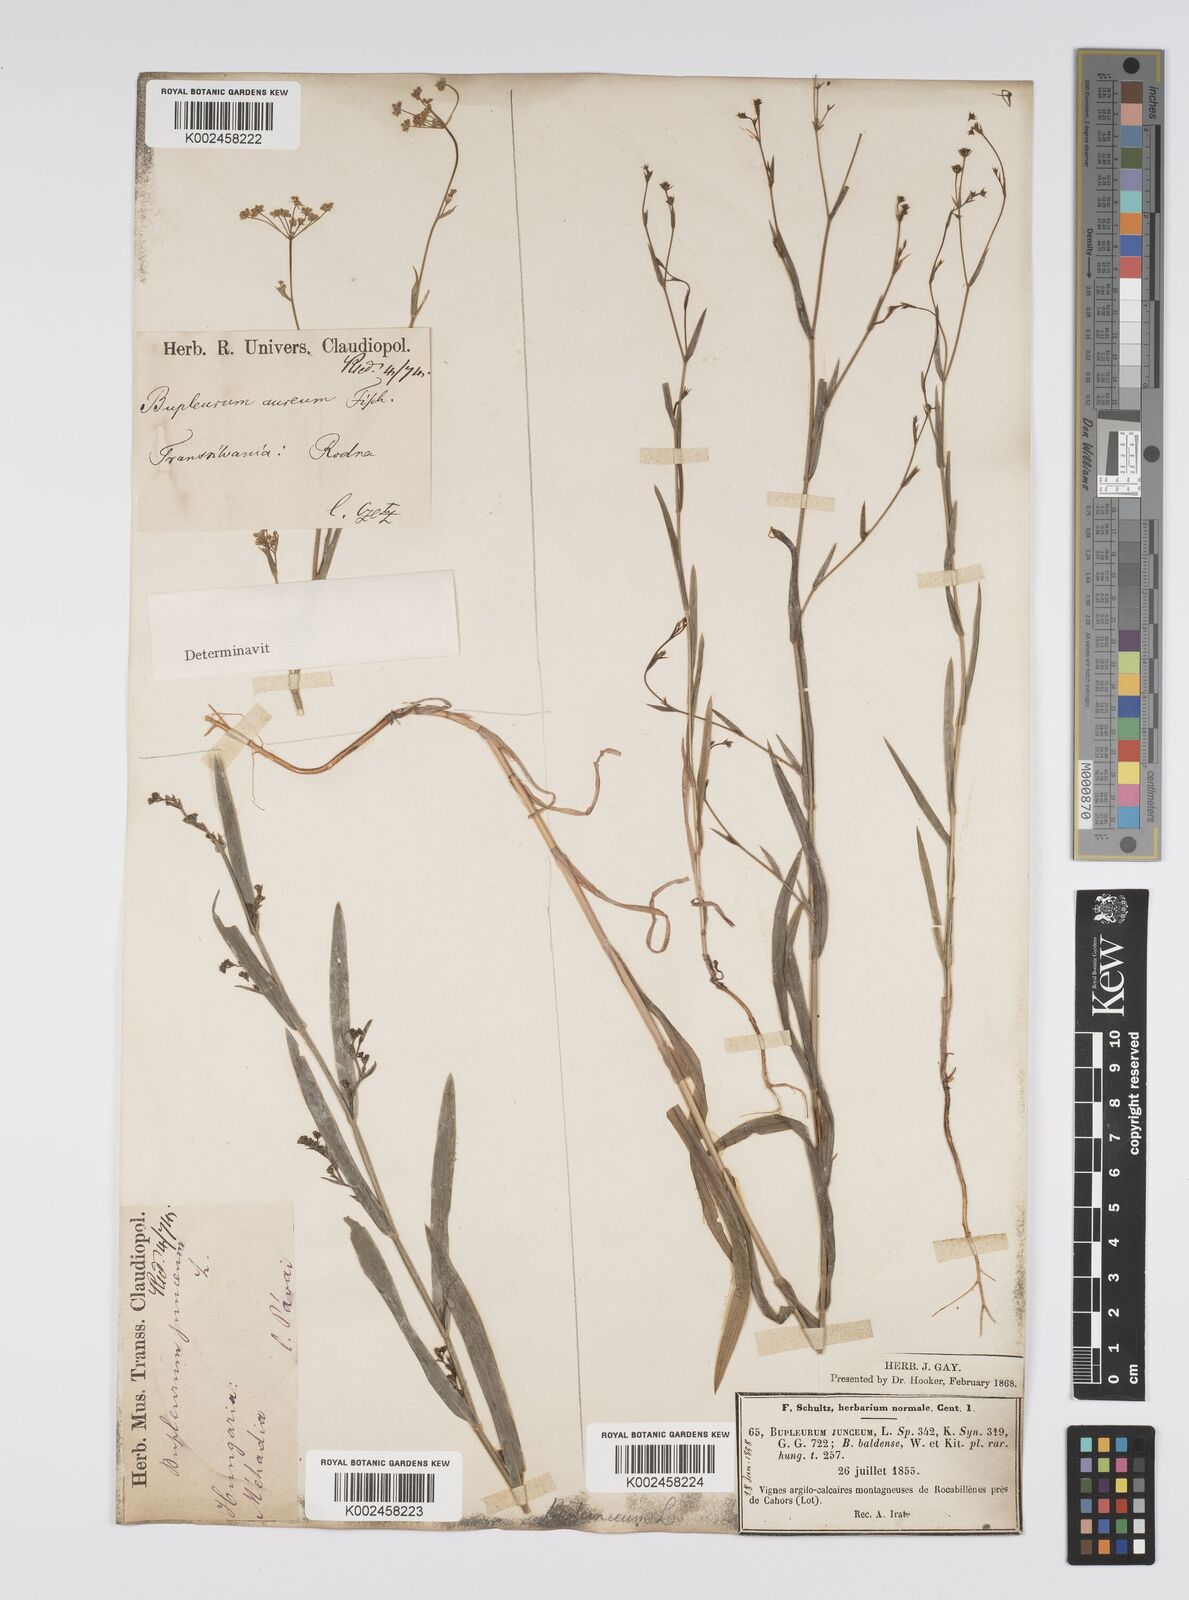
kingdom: Plantae
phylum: Tracheophyta
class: Magnoliopsida
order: Apiales
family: Apiaceae
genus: Bupleurum
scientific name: Bupleurum praealtum
